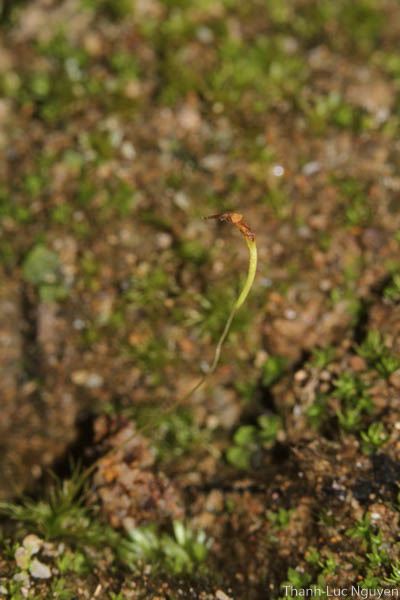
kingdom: Plantae
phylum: Bryophyta
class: Bryopsida
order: Dicranales
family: Bruchiaceae
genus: Trematodon
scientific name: Trematodon
